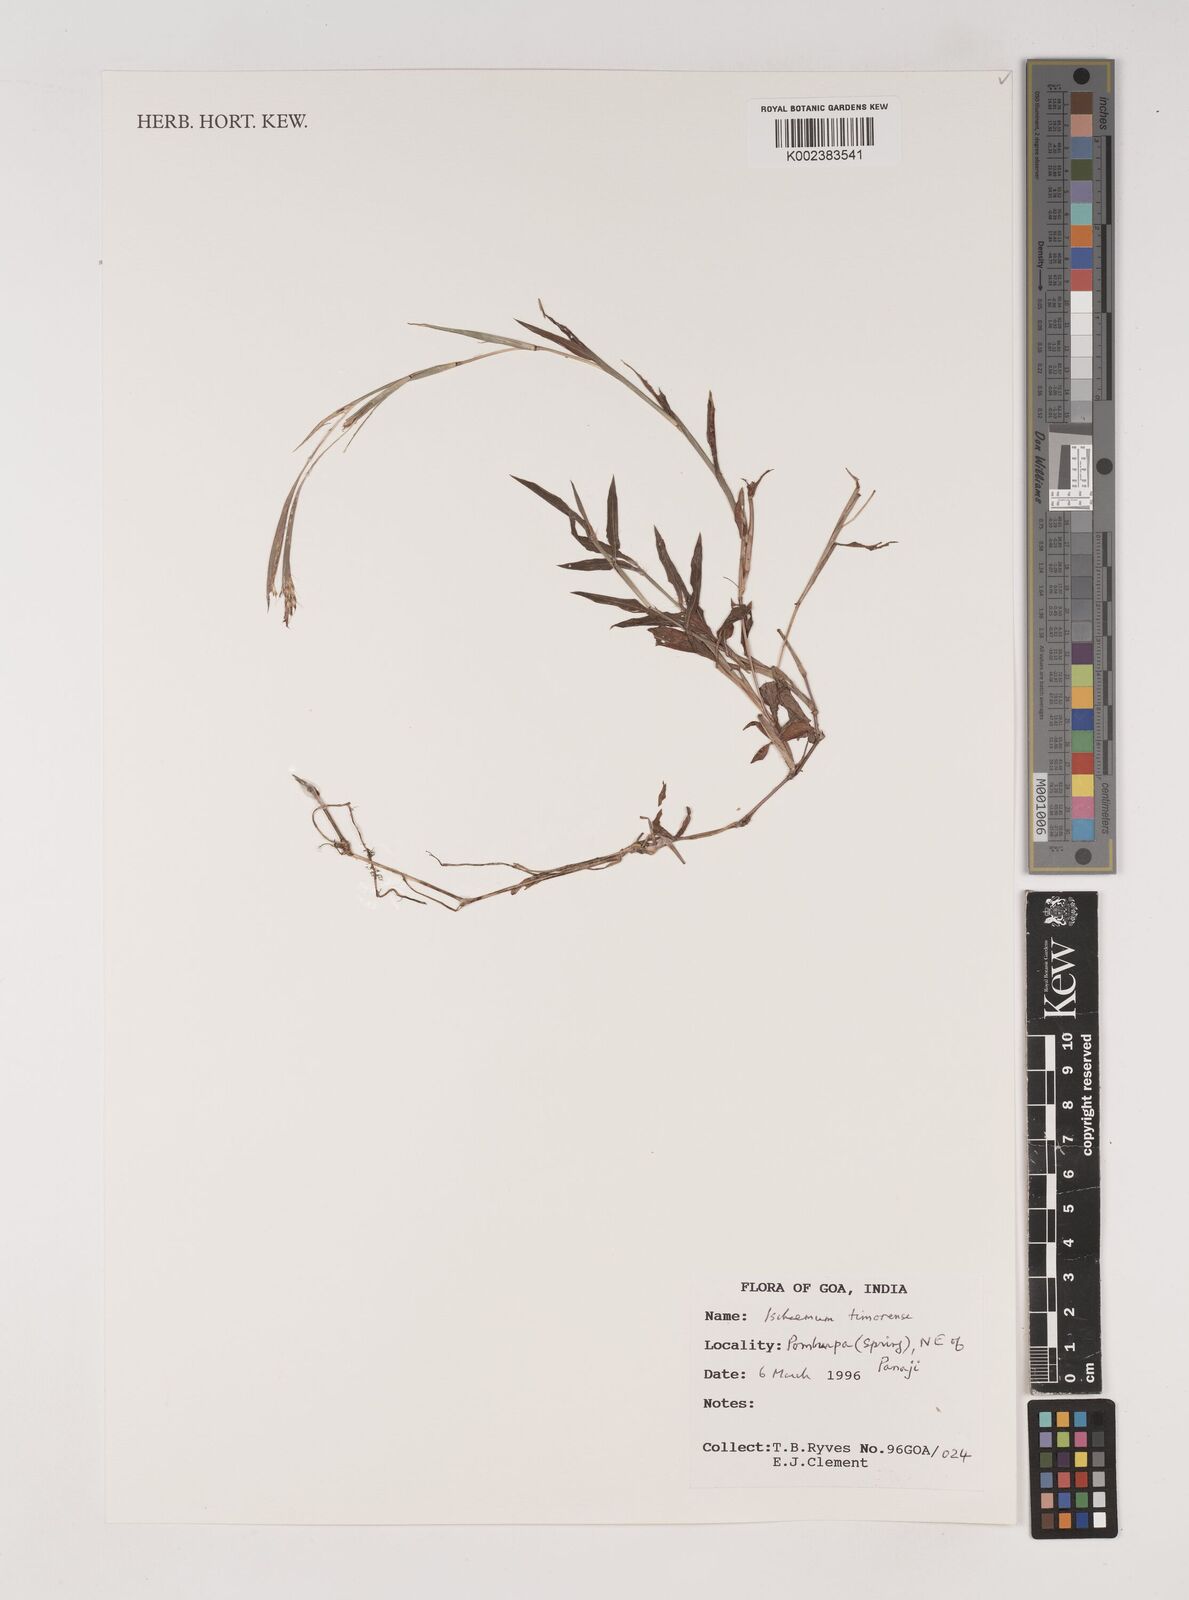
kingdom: Plantae
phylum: Tracheophyta
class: Liliopsida
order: Poales
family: Poaceae
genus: Ischaemum
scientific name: Ischaemum timorense
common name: Stalkleaf murainagrass
